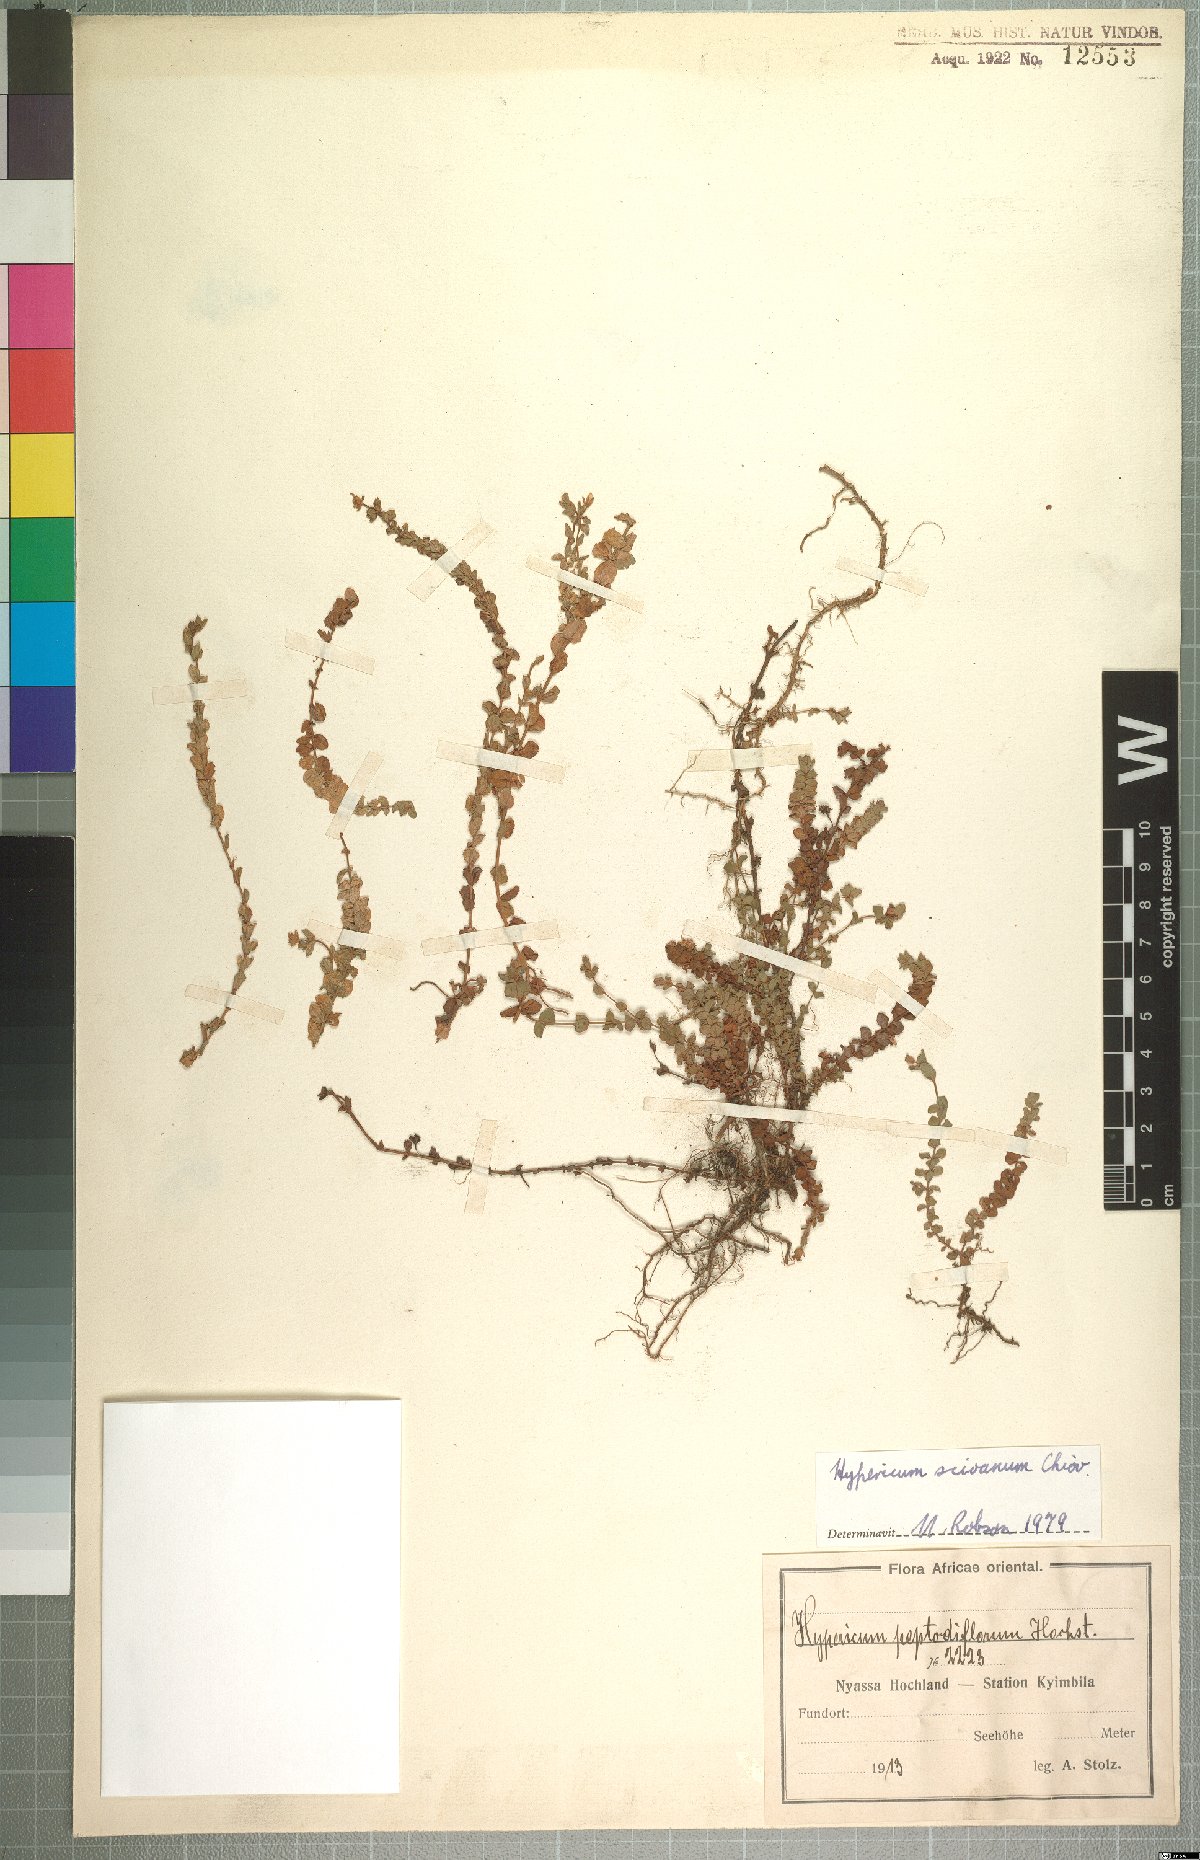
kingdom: Plantae
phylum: Tracheophyta
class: Magnoliopsida
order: Malpighiales
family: Hypericaceae
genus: Hypericum
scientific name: Hypericum scioanum
